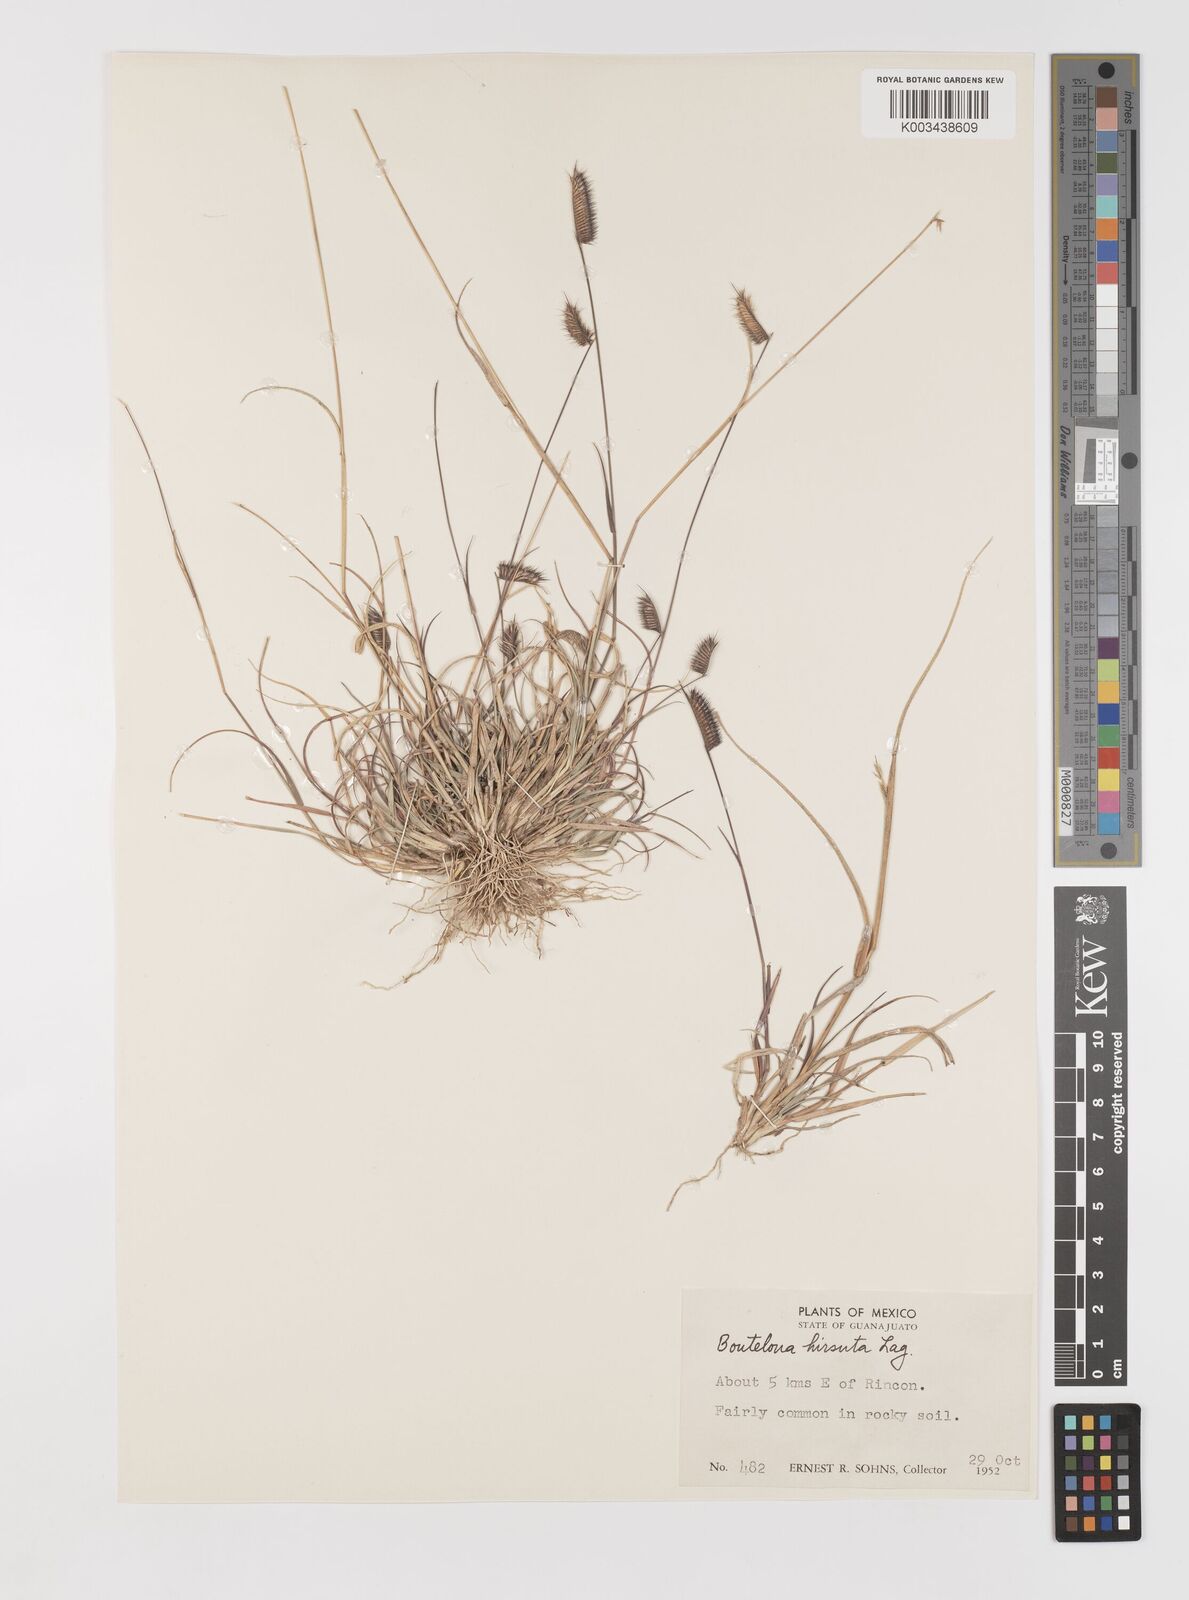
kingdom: Plantae
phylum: Tracheophyta
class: Liliopsida
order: Poales
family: Poaceae
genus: Bouteloua
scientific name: Bouteloua hirsuta
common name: Hairy grama
